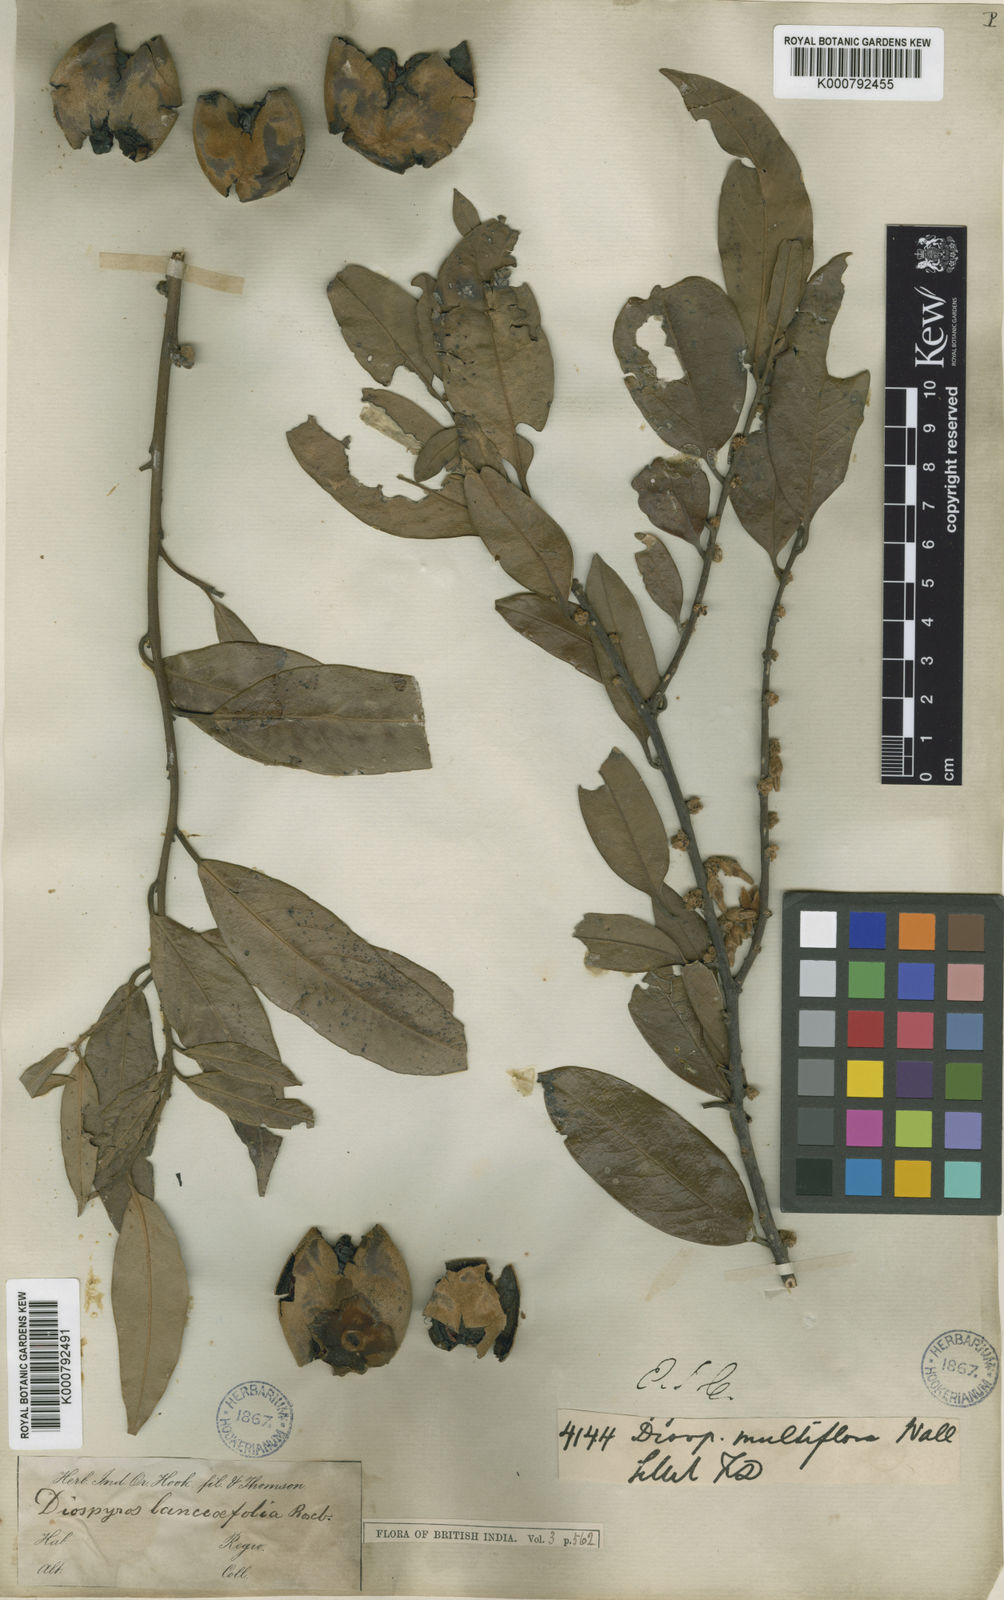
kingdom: Plantae
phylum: Tracheophyta
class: Magnoliopsida
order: Ericales
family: Ebenaceae
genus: Diospyros
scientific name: Diospyros lanceifolia
